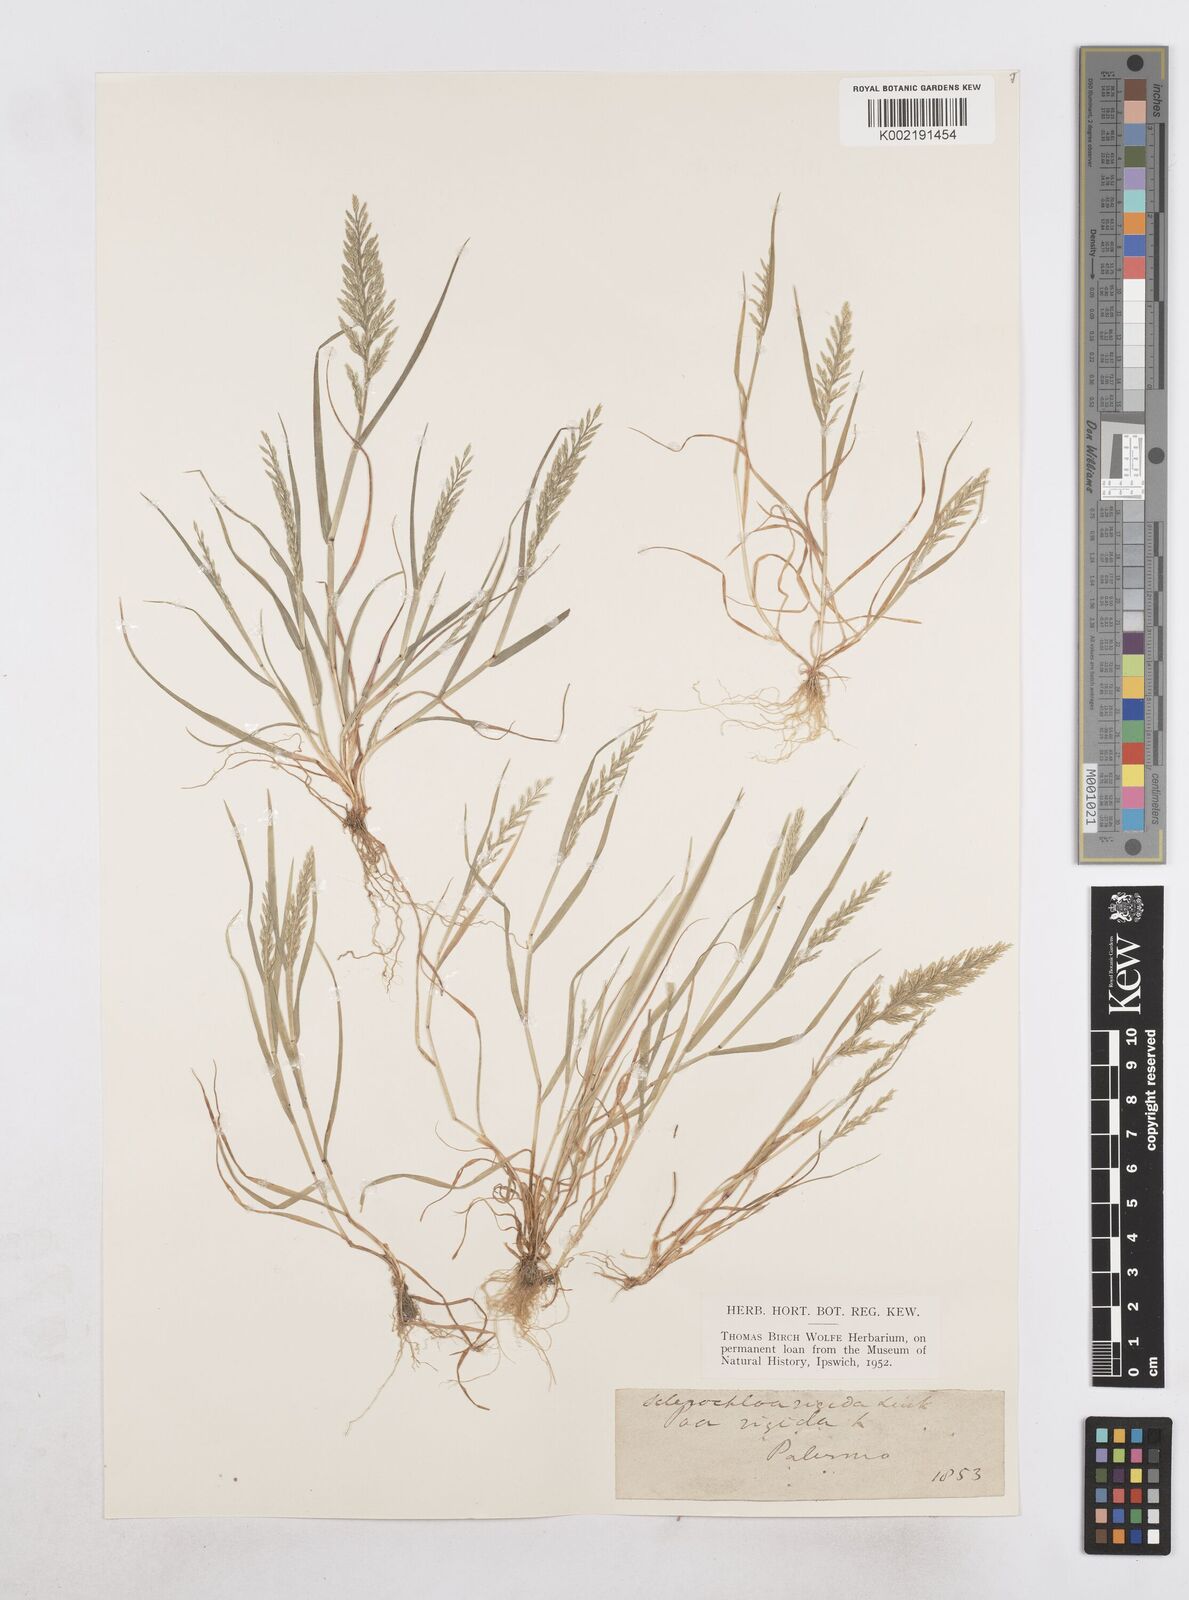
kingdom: Plantae
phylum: Tracheophyta
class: Liliopsida
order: Poales
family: Poaceae
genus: Catapodium
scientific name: Catapodium rigidum
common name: Fern-grass
